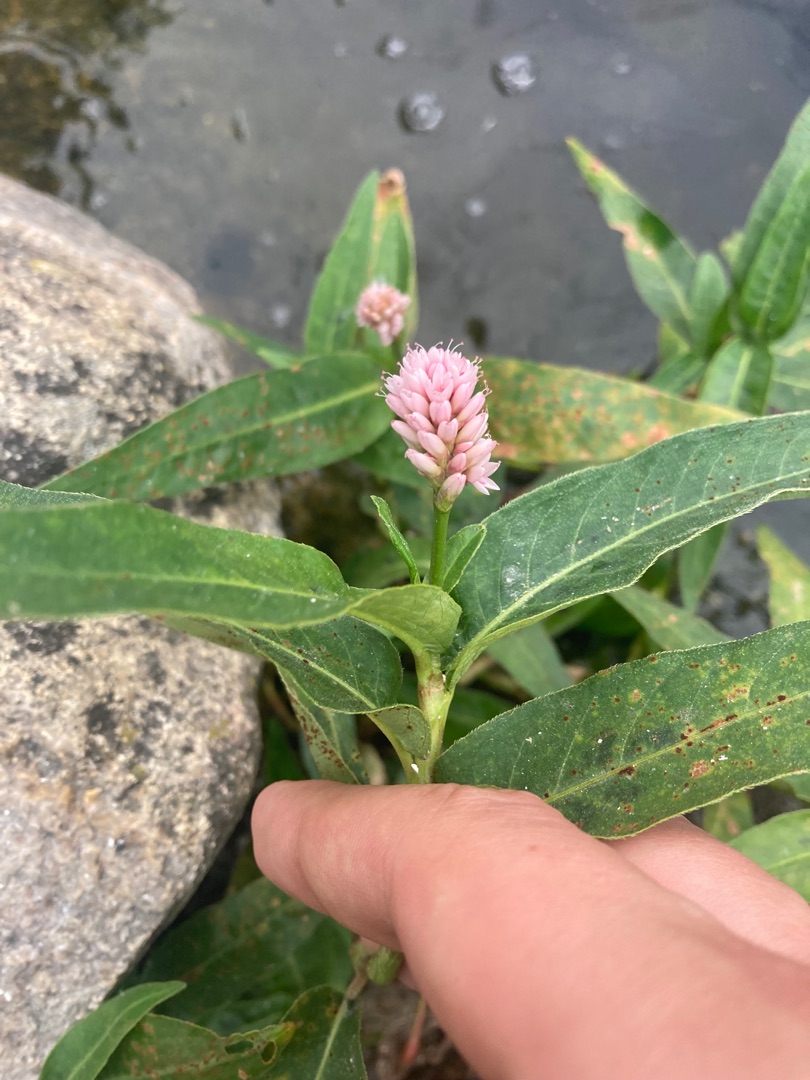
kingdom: Plantae
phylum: Tracheophyta
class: Magnoliopsida
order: Caryophyllales
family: Polygonaceae
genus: Persicaria
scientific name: Persicaria amphibia
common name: Vand-pileurt
